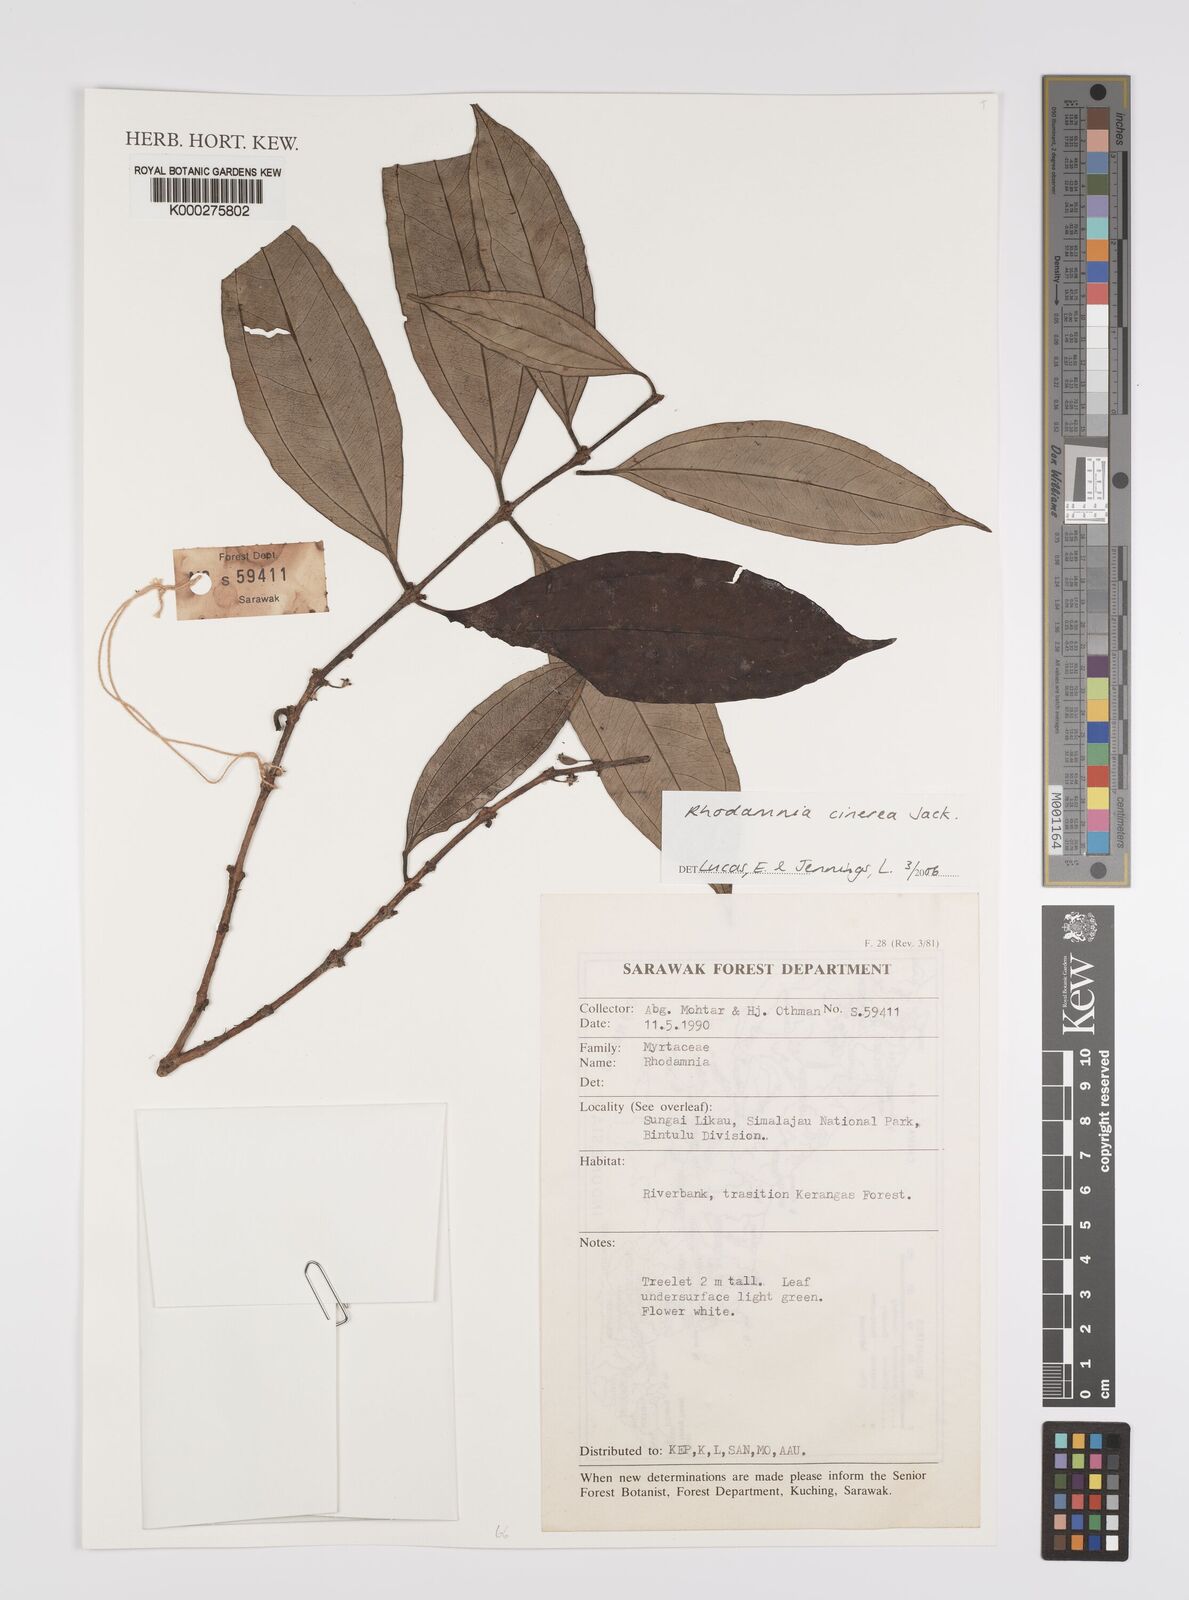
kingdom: Plantae
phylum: Tracheophyta
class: Magnoliopsida
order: Myrtales
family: Myrtaceae
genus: Rhodamnia
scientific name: Rhodamnia cinerea
